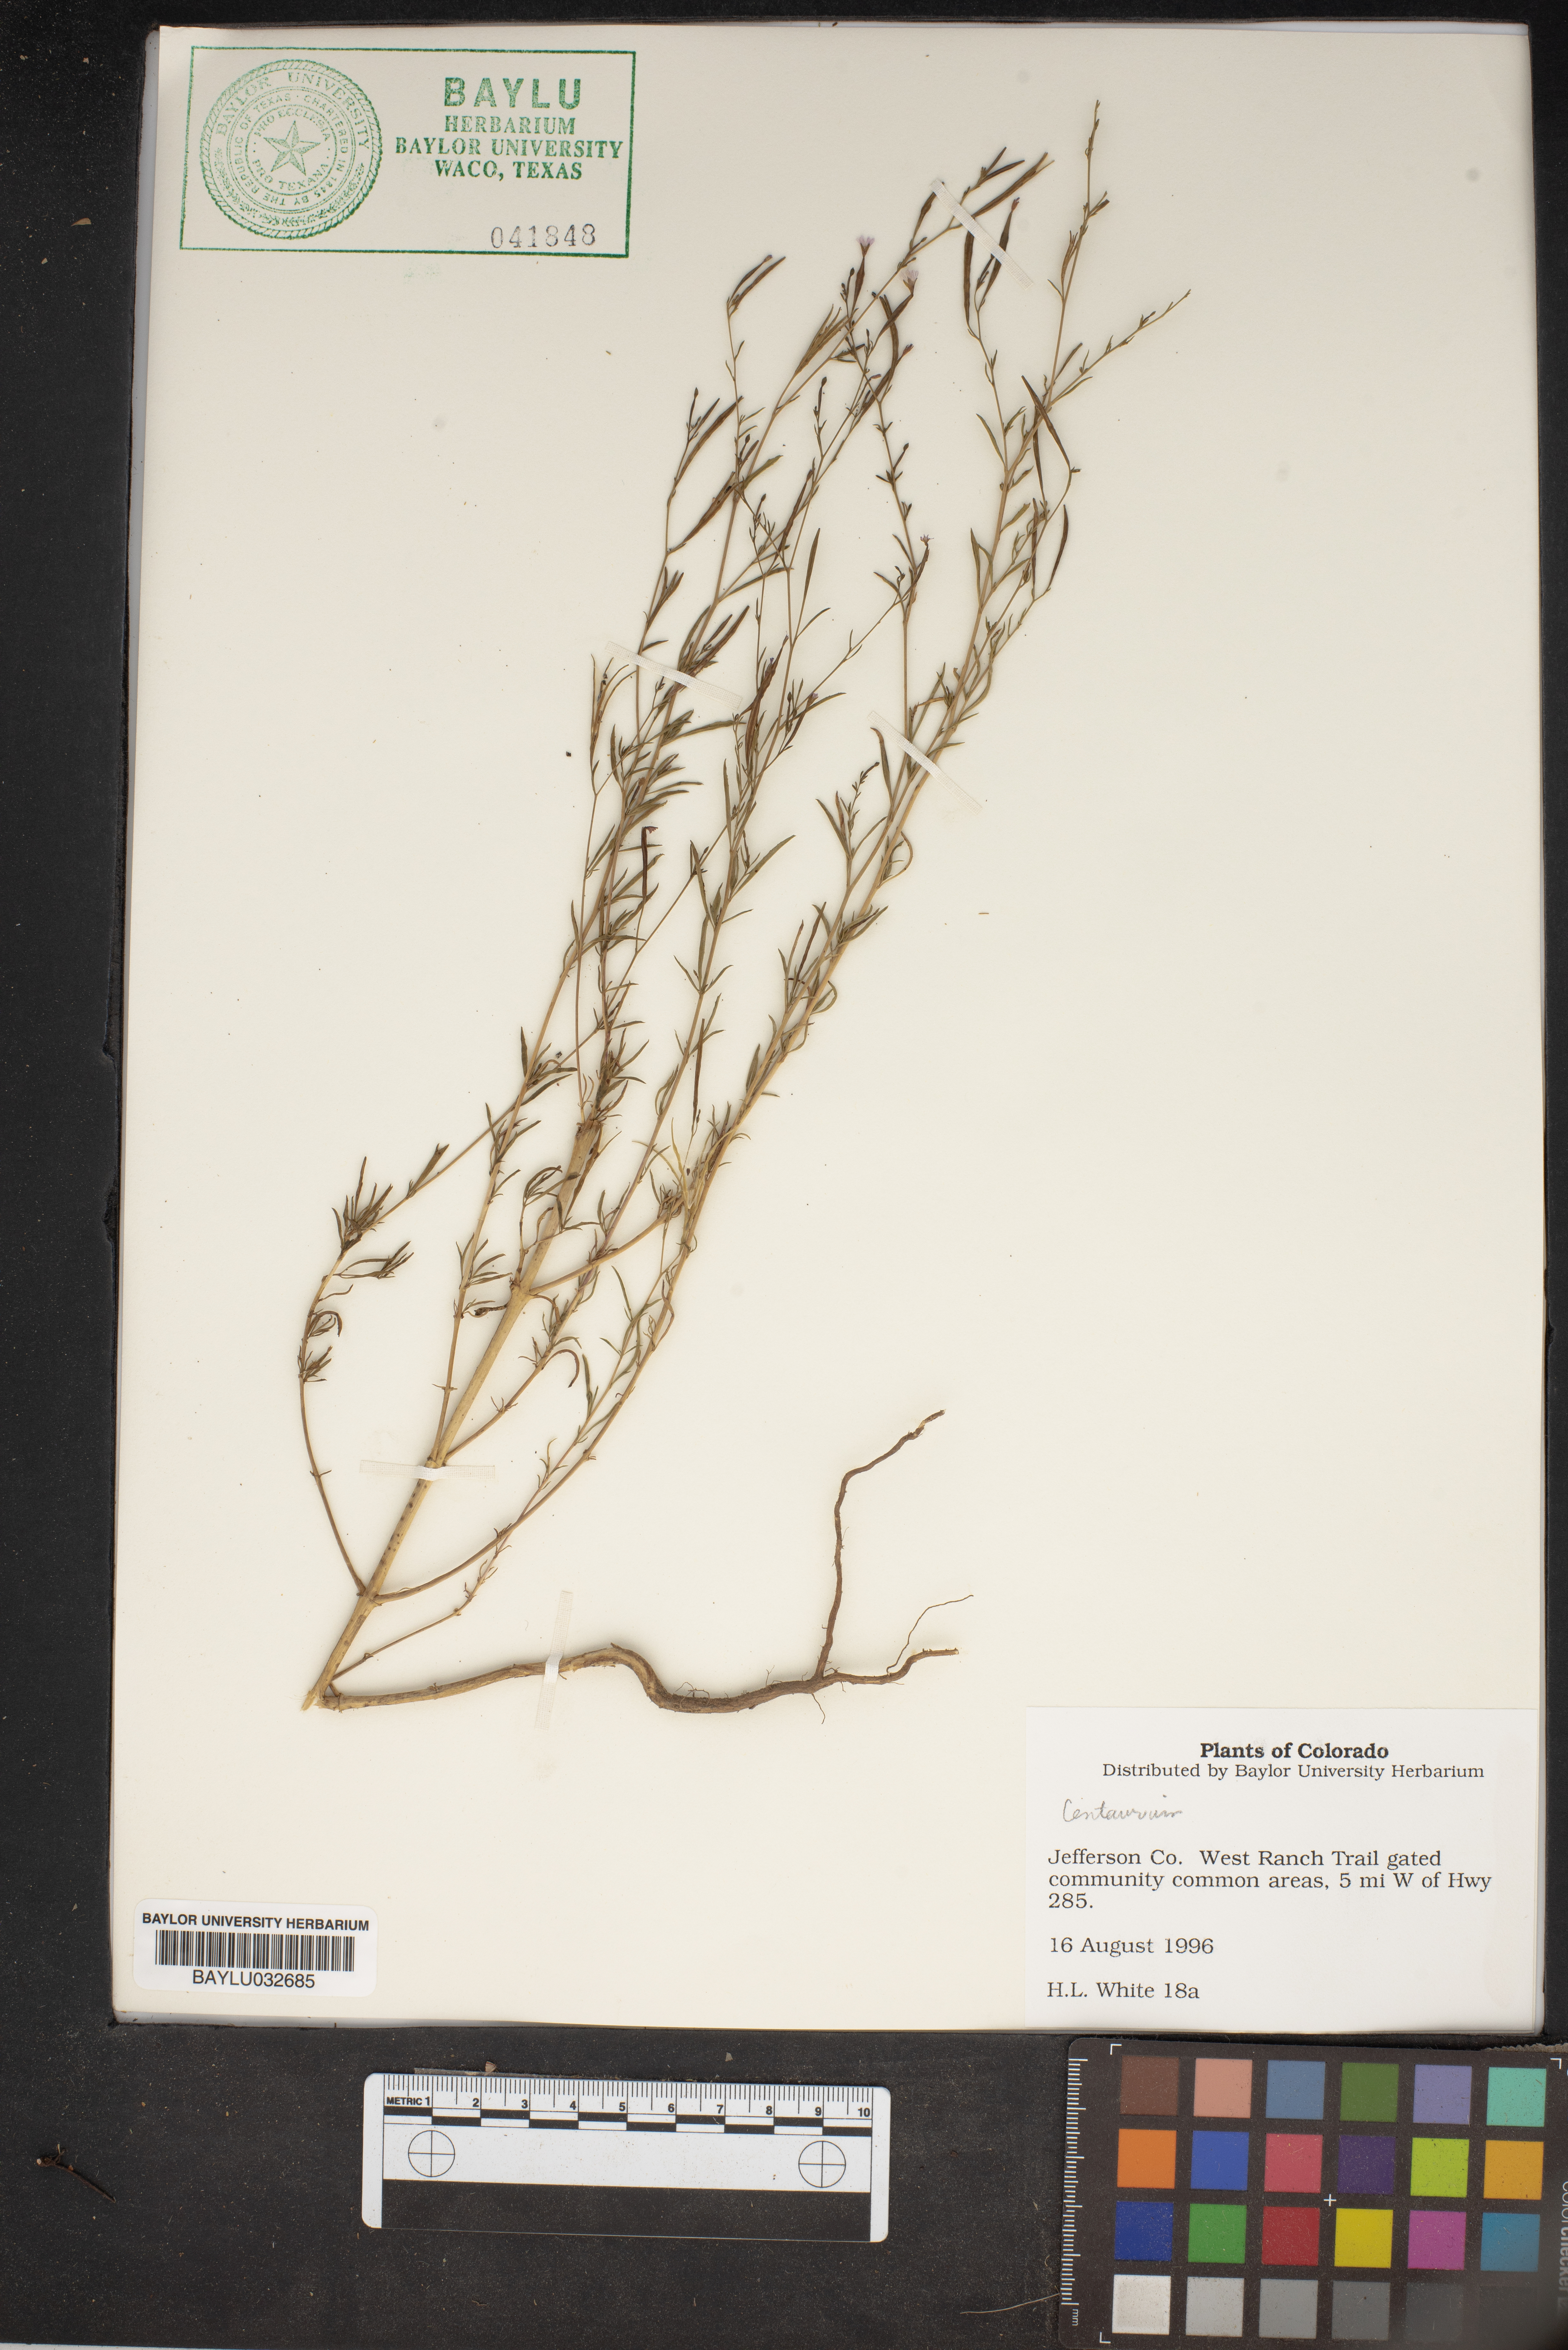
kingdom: Plantae
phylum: Tracheophyta
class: Magnoliopsida
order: Gentianales
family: Gentianaceae
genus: Centaurium
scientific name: Centaurium
